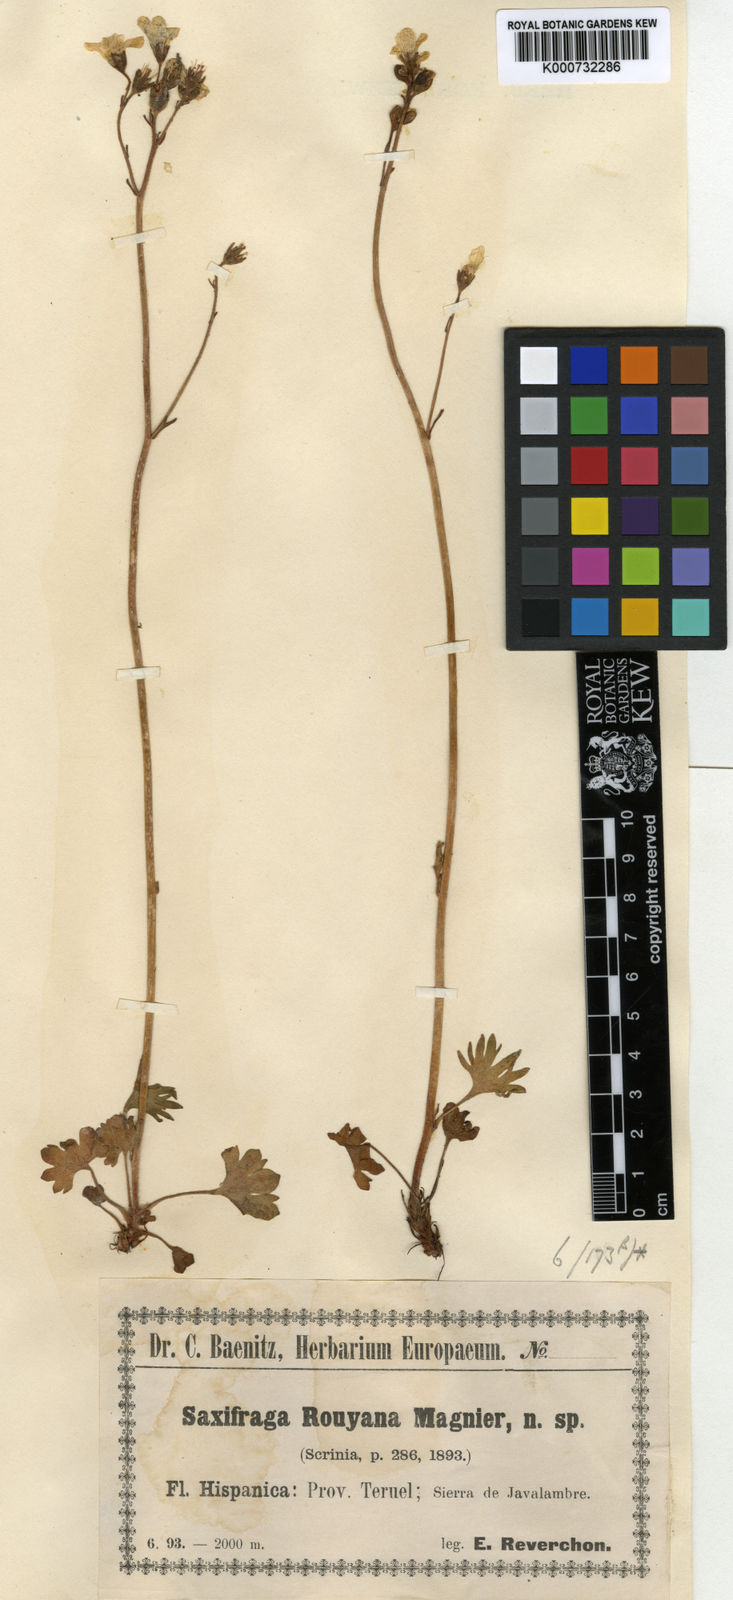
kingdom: Plantae
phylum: Tracheophyta
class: Magnoliopsida
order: Saxifragales
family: Saxifragaceae
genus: Saxifraga
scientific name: Saxifraga granulata
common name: Meadow saxifrage
